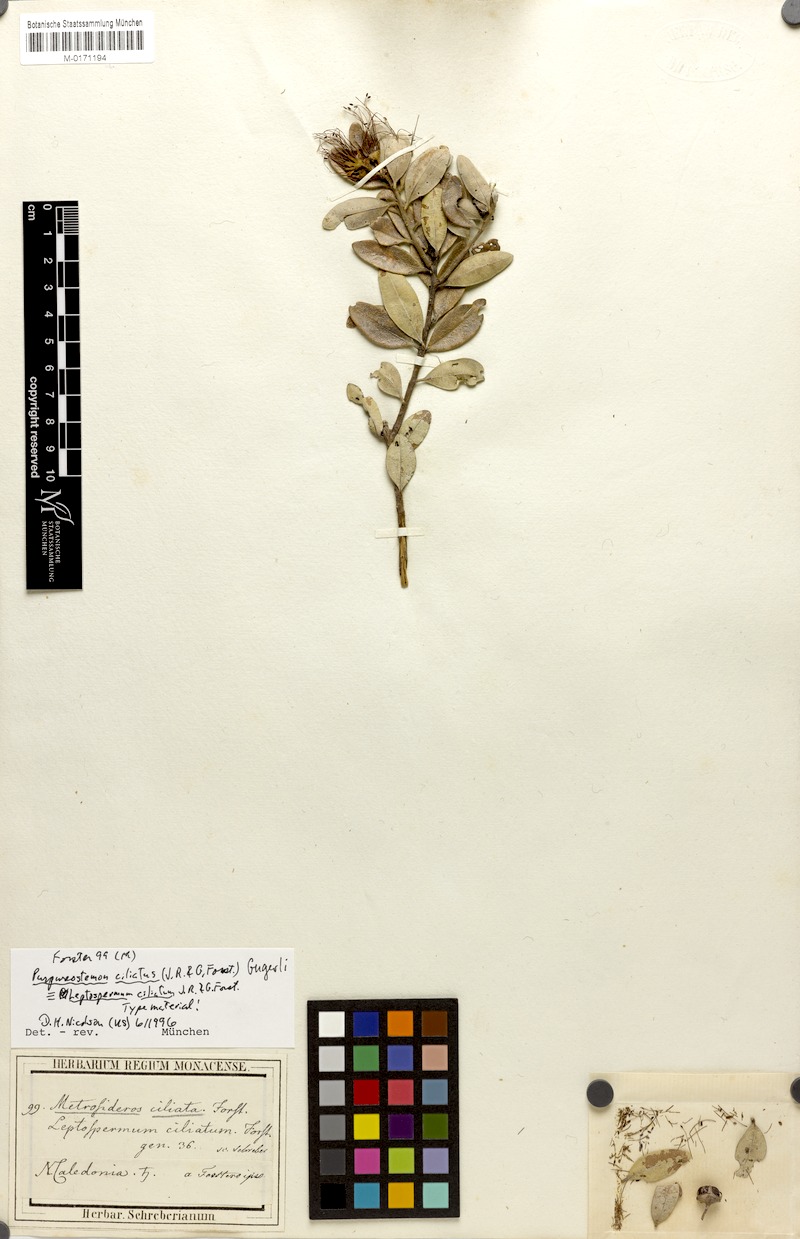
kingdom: Plantae
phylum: Tracheophyta
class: Magnoliopsida
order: Myrtales
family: Myrtaceae
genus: Purpureostemon
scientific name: Purpureostemon ciliatus
